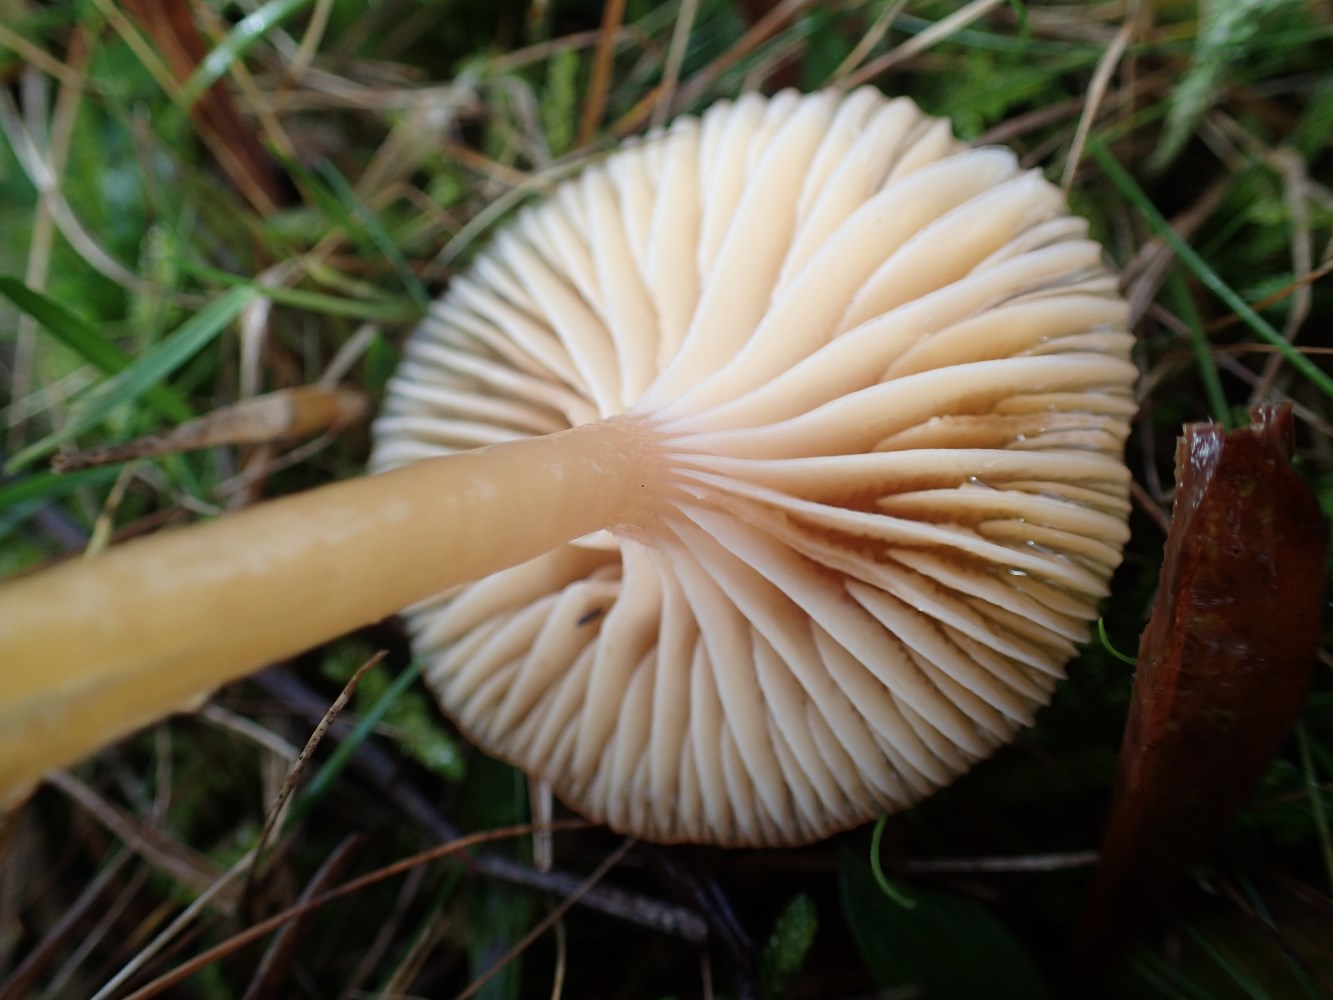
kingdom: Fungi
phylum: Basidiomycota
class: Agaricomycetes
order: Agaricales
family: Hygrophoraceae
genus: Gliophorus
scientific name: Gliophorus laetus
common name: brusk-vokshat
